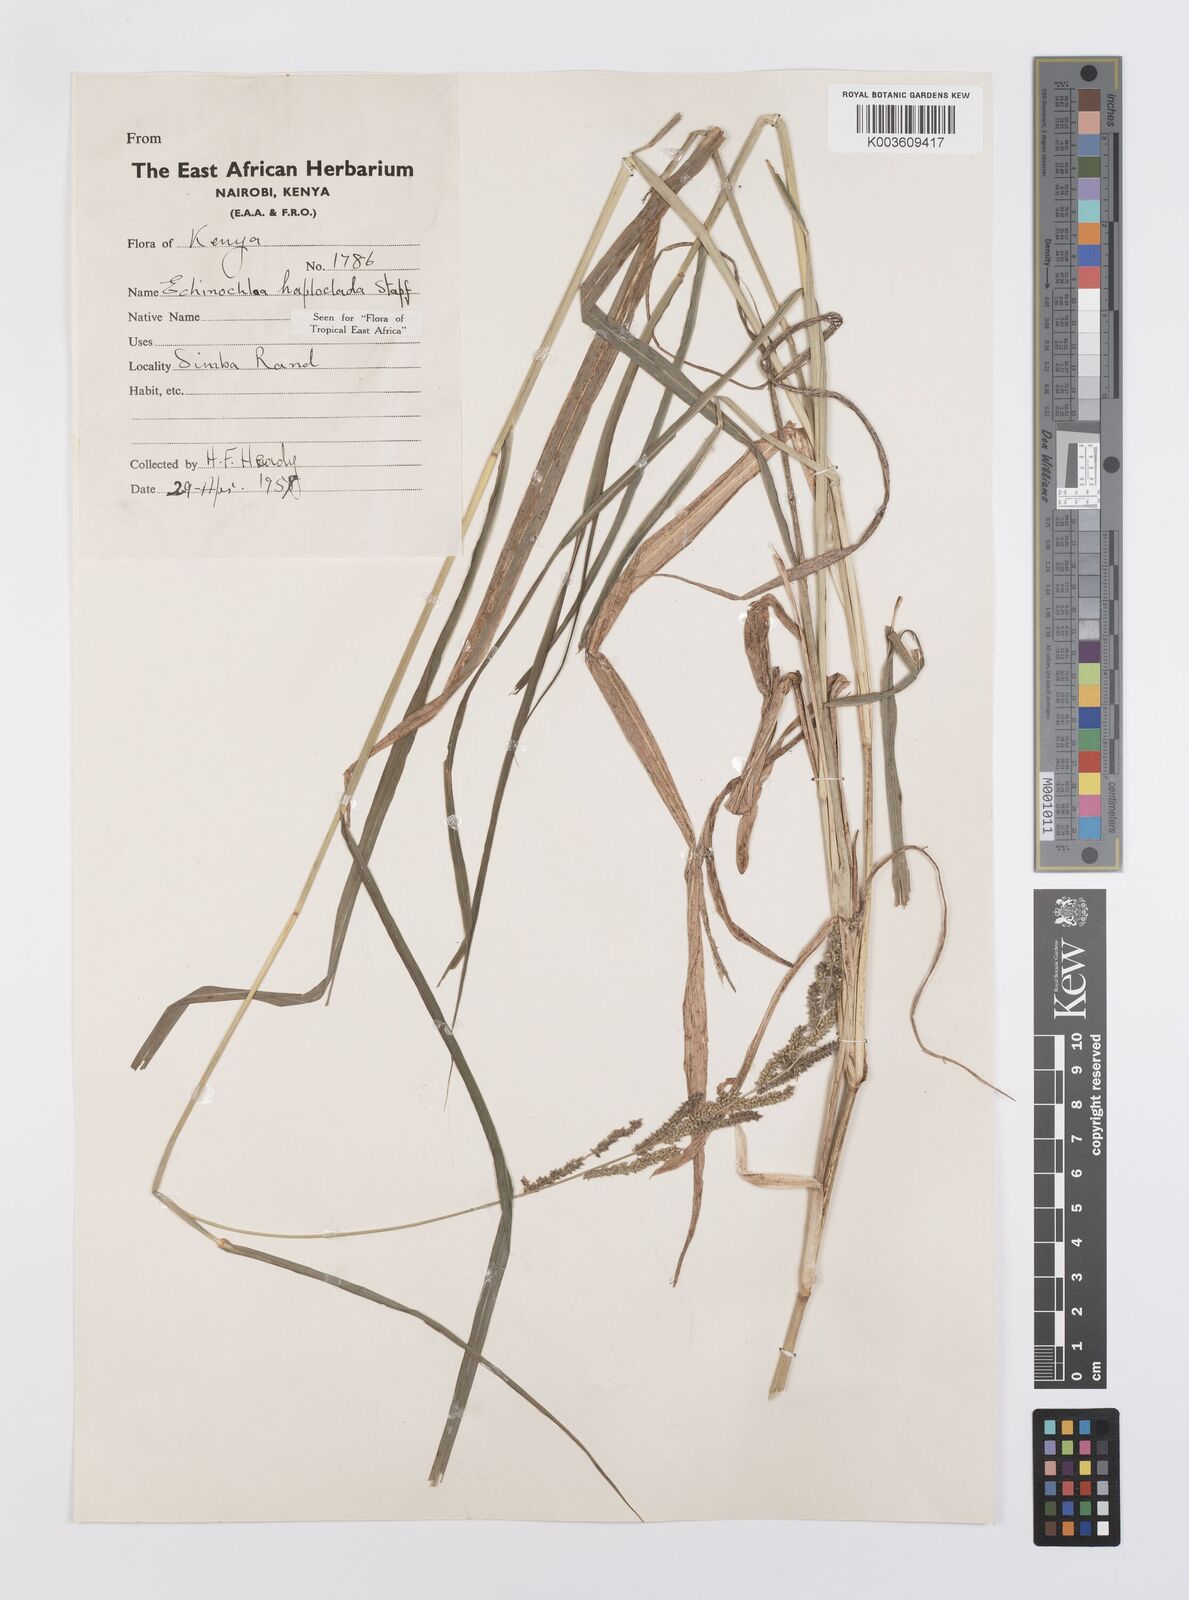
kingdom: Plantae
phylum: Tracheophyta
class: Liliopsida
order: Poales
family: Poaceae
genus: Echinochloa
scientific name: Echinochloa haploclada
